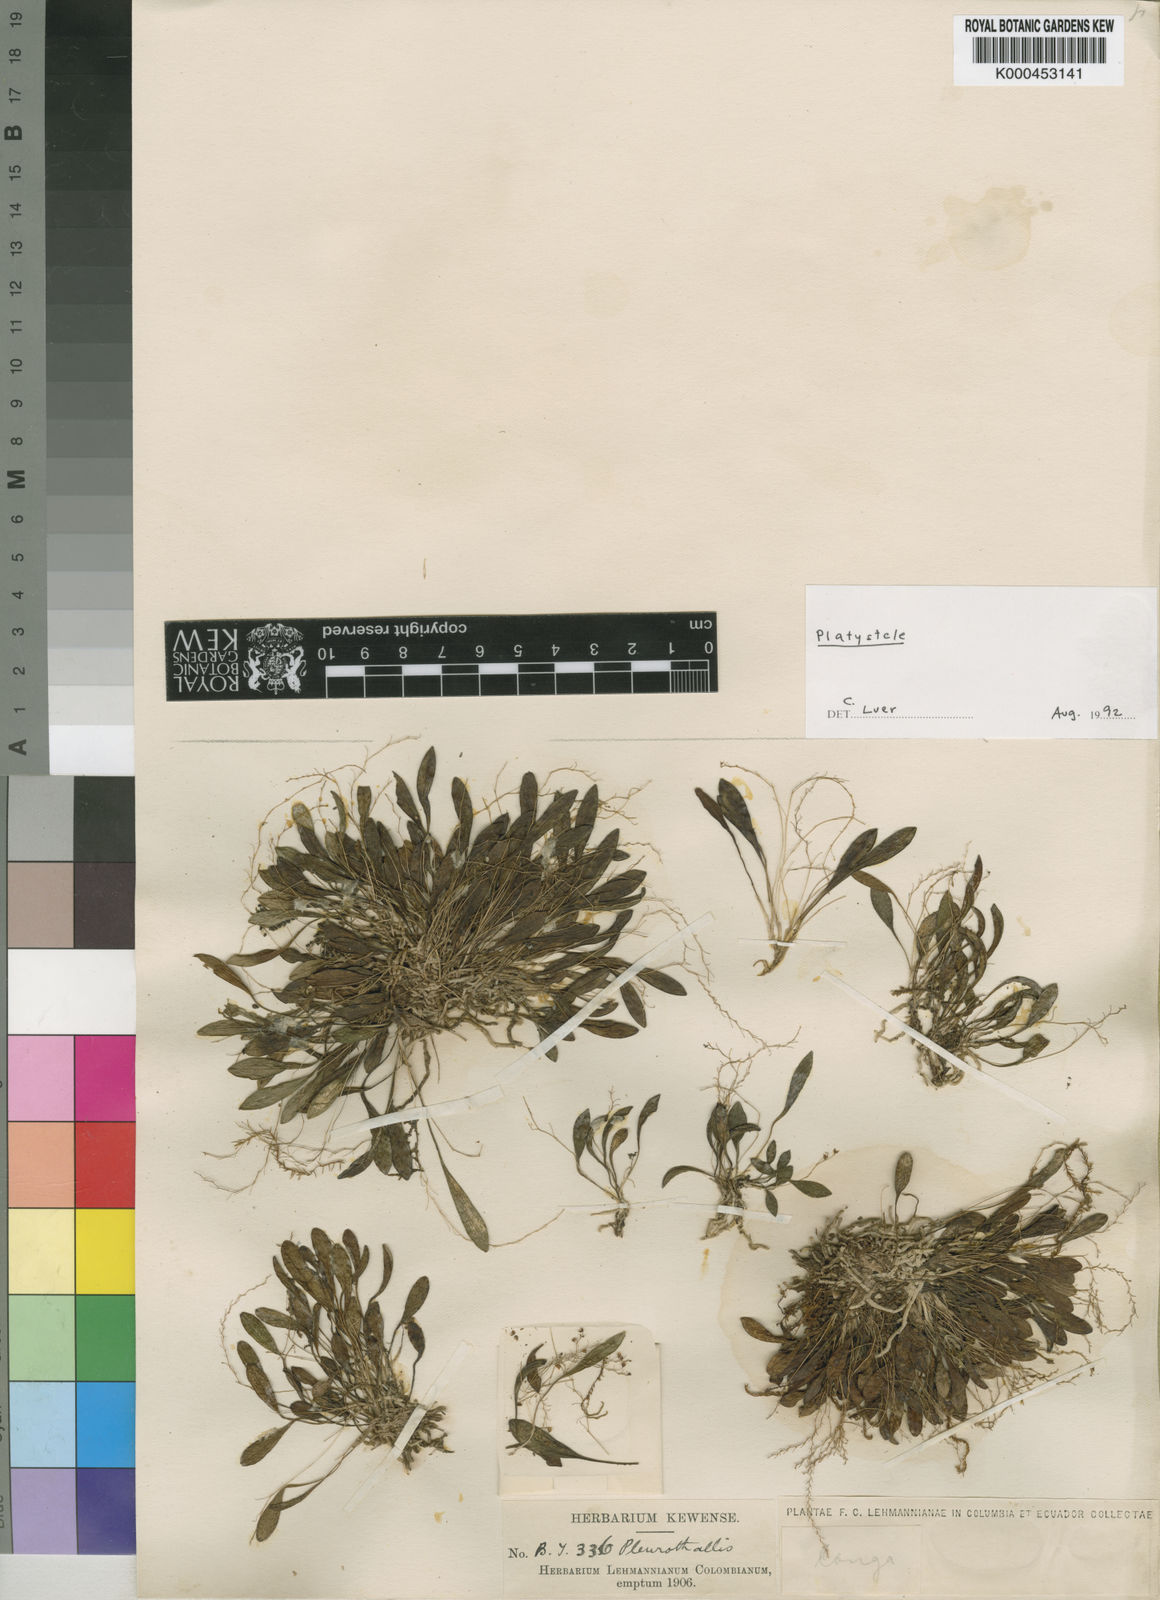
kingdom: Plantae
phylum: Tracheophyta
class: Liliopsida
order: Asparagales
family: Orchidaceae
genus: Platystele
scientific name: Platystele
